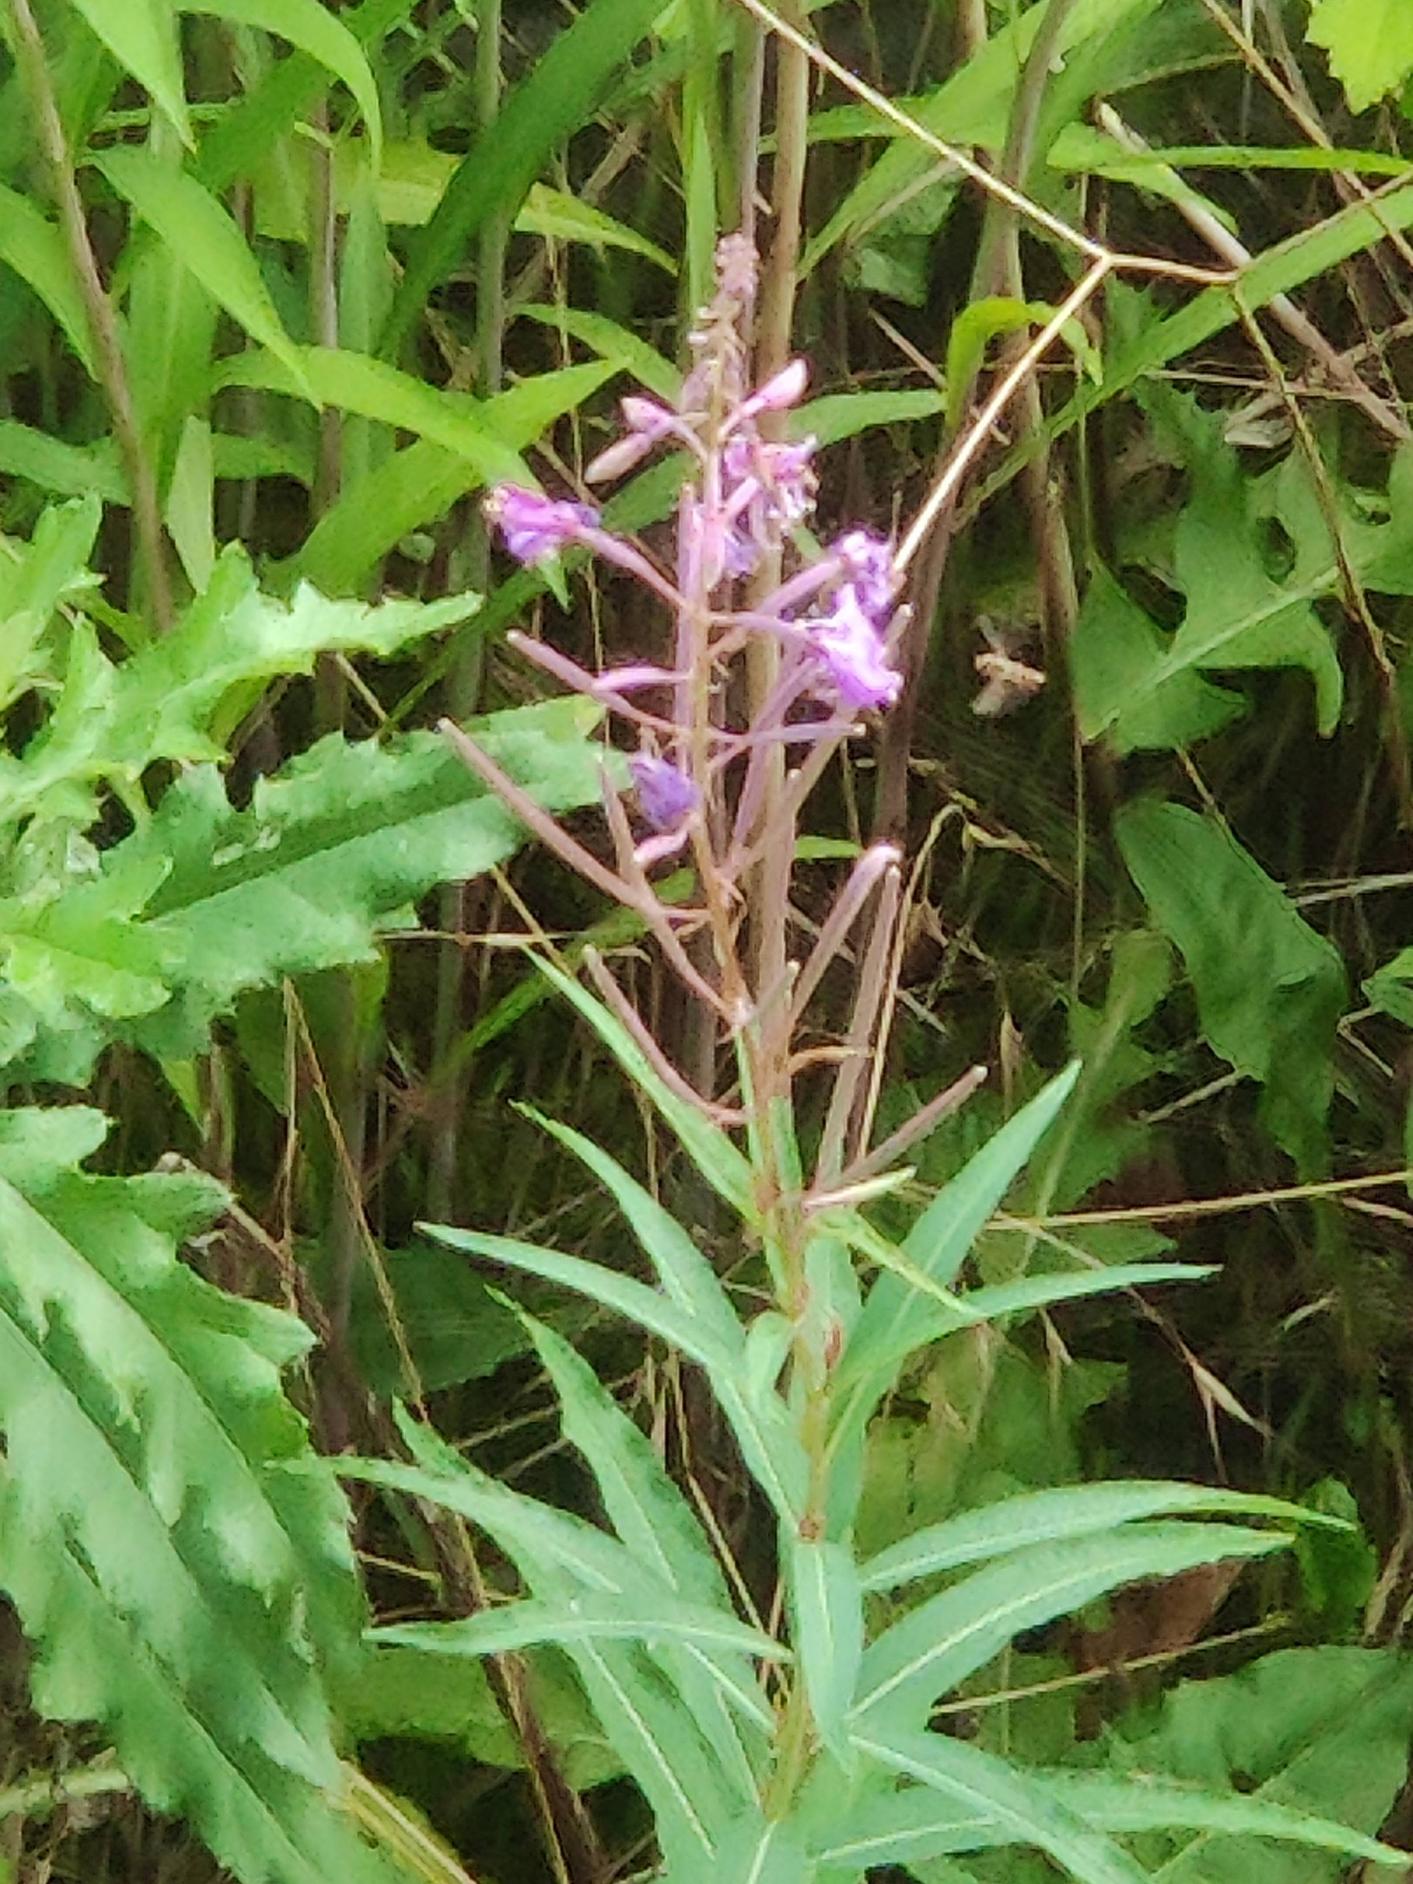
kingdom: Plantae
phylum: Tracheophyta
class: Magnoliopsida
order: Myrtales
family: Onagraceae
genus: Chamaenerion
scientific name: Chamaenerion angustifolium
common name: Gederams
